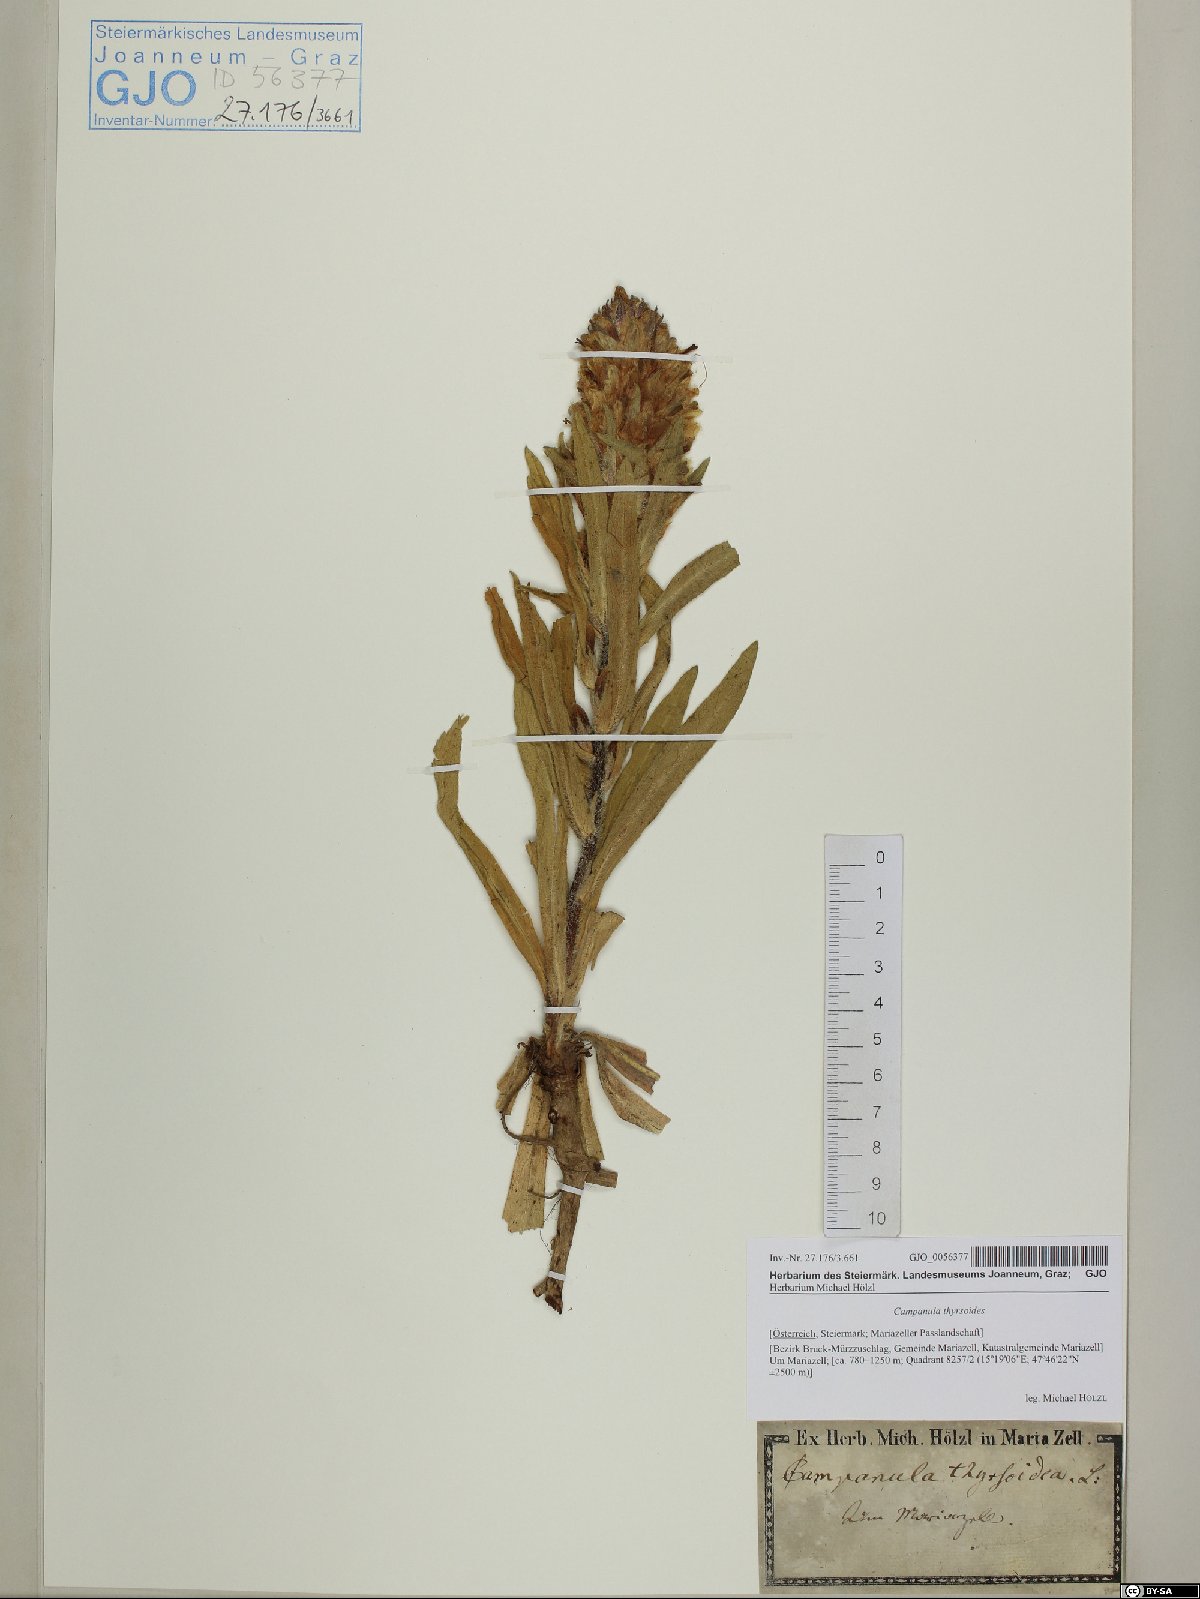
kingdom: Plantae
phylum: Tracheophyta
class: Magnoliopsida
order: Asterales
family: Campanulaceae
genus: Campanula
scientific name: Campanula thyrsoides
